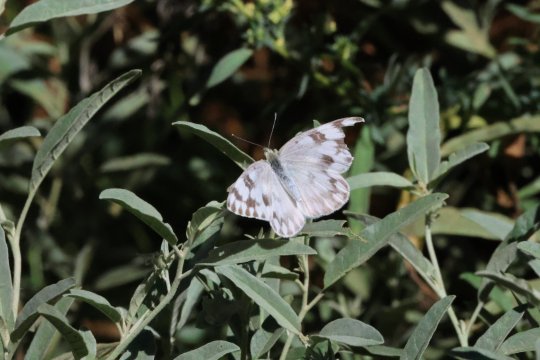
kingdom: Animalia
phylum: Arthropoda
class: Insecta
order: Lepidoptera
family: Pieridae
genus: Pontia
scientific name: Pontia protodice
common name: Checkered White
